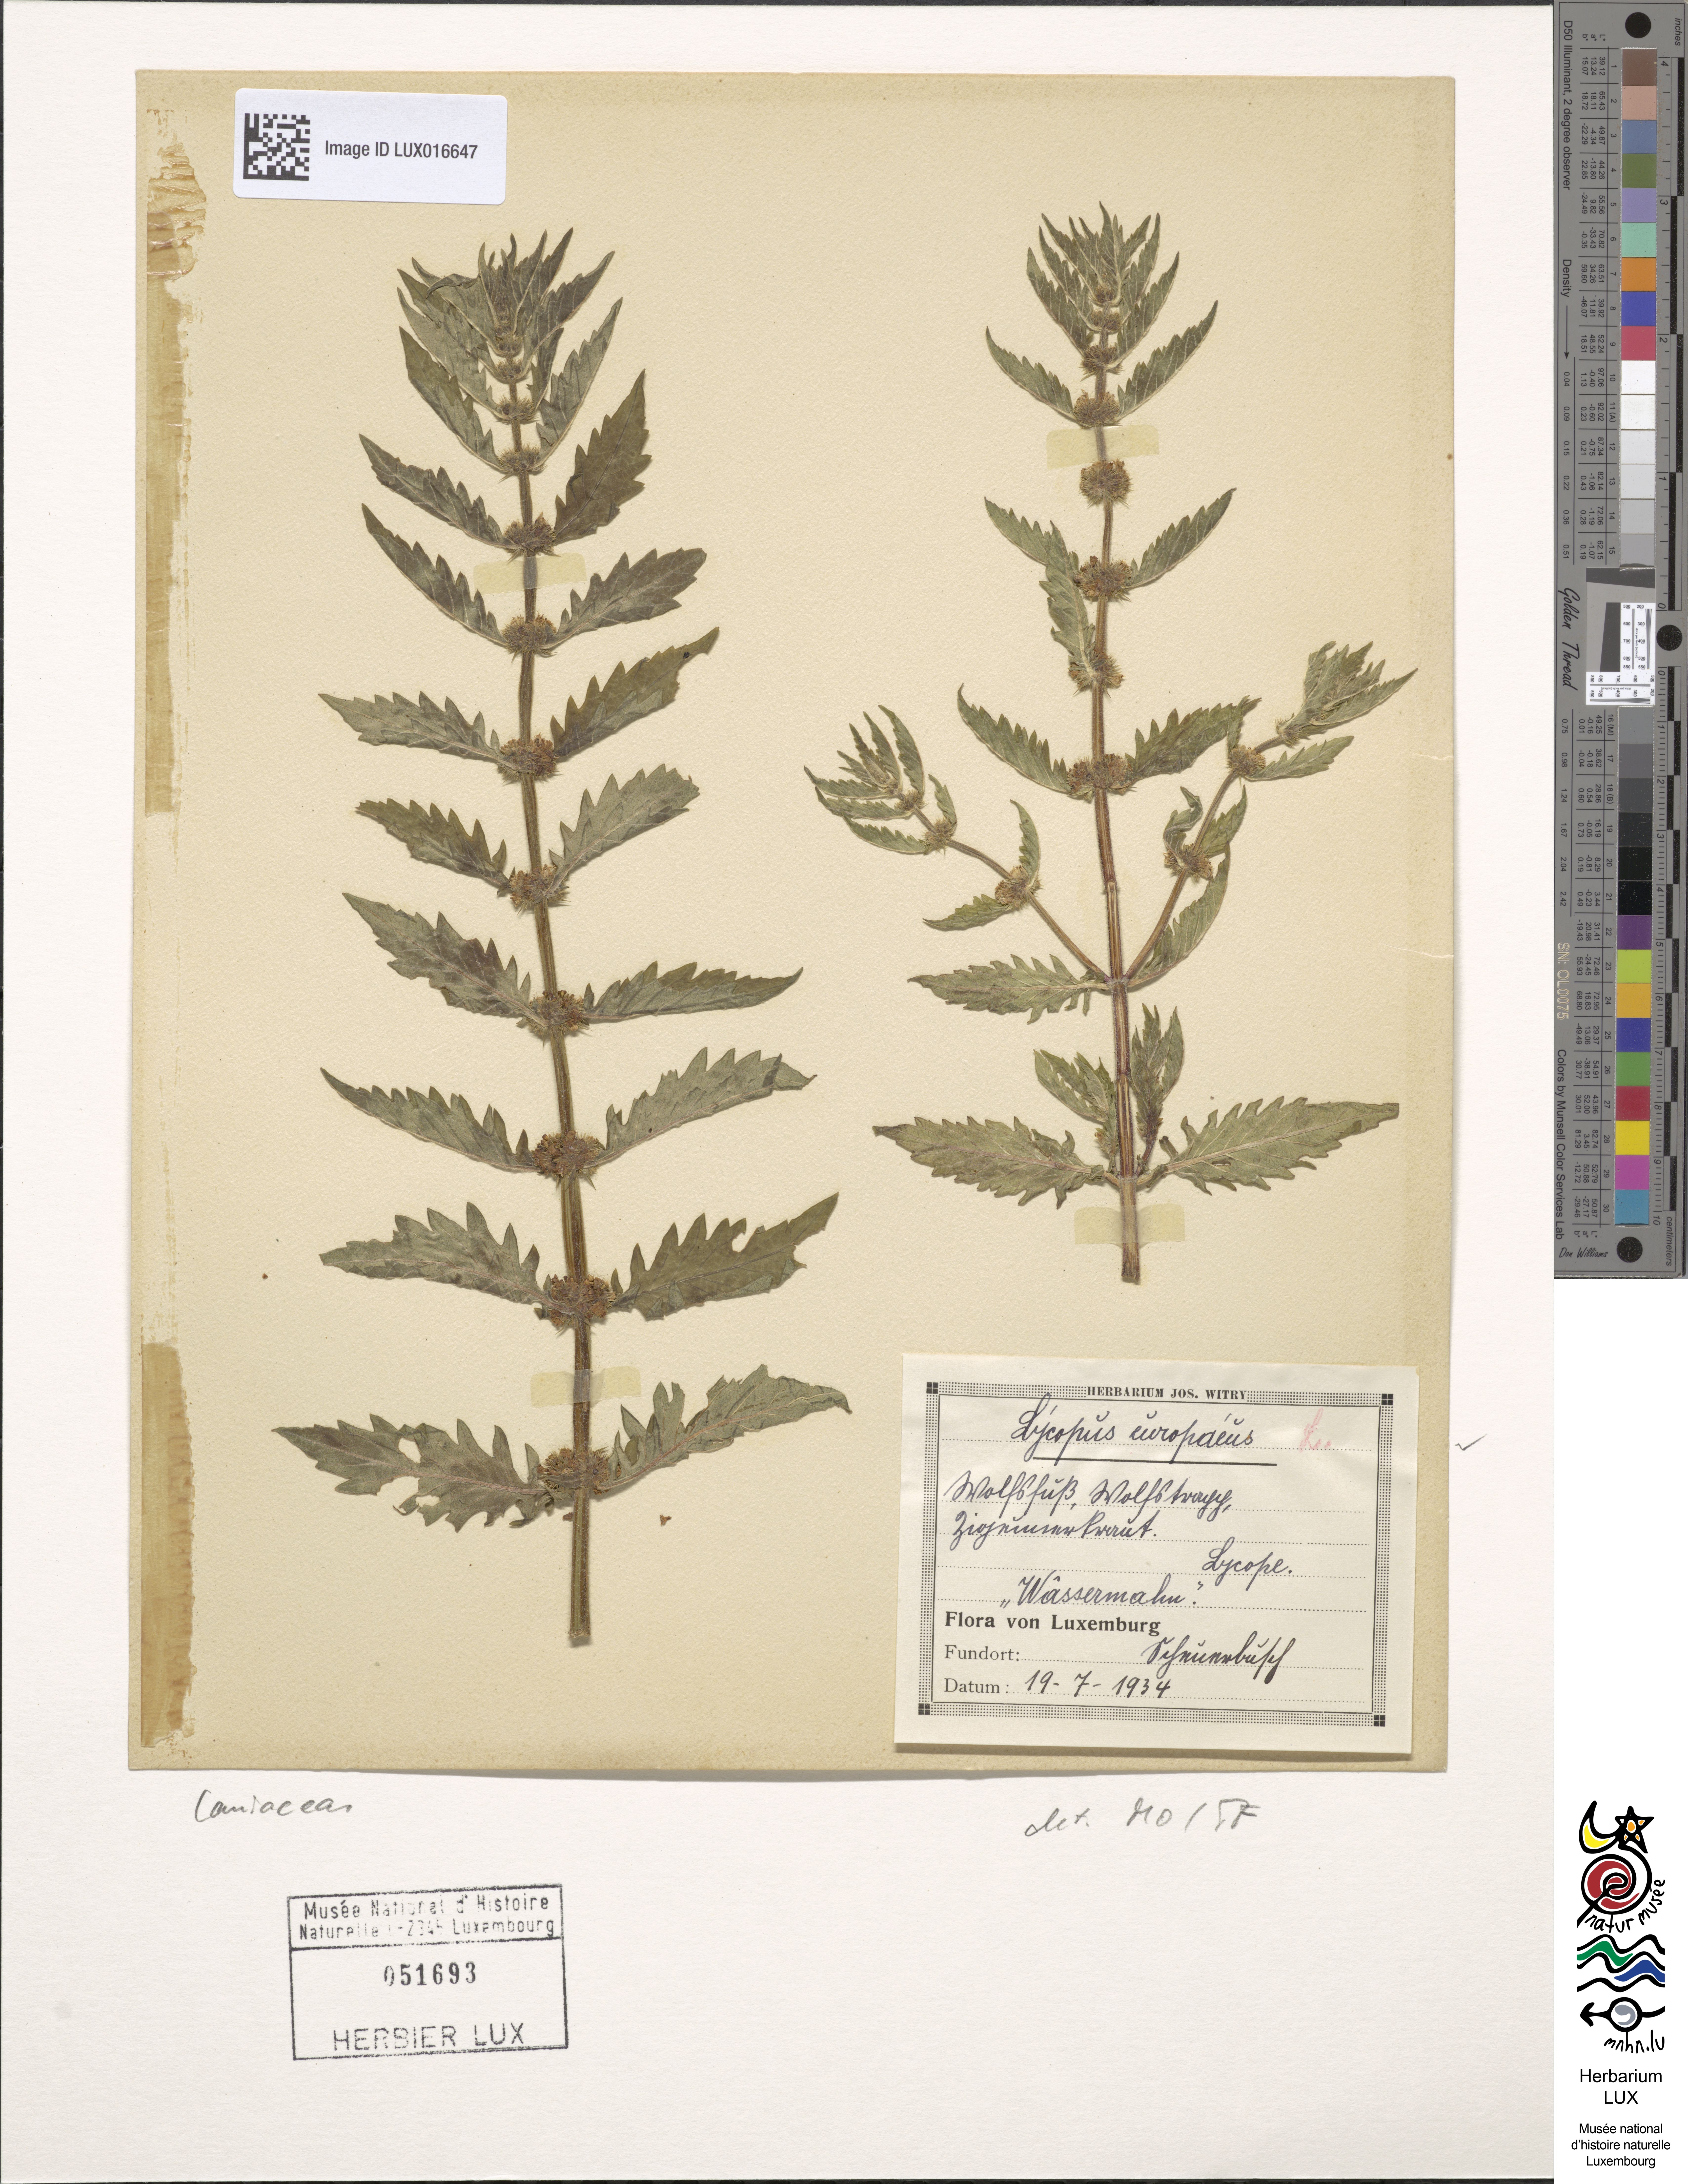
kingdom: Plantae
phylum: Tracheophyta
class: Magnoliopsida
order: Lamiales
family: Lamiaceae
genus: Lycopus
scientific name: Lycopus europaeus
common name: European bugleweed
